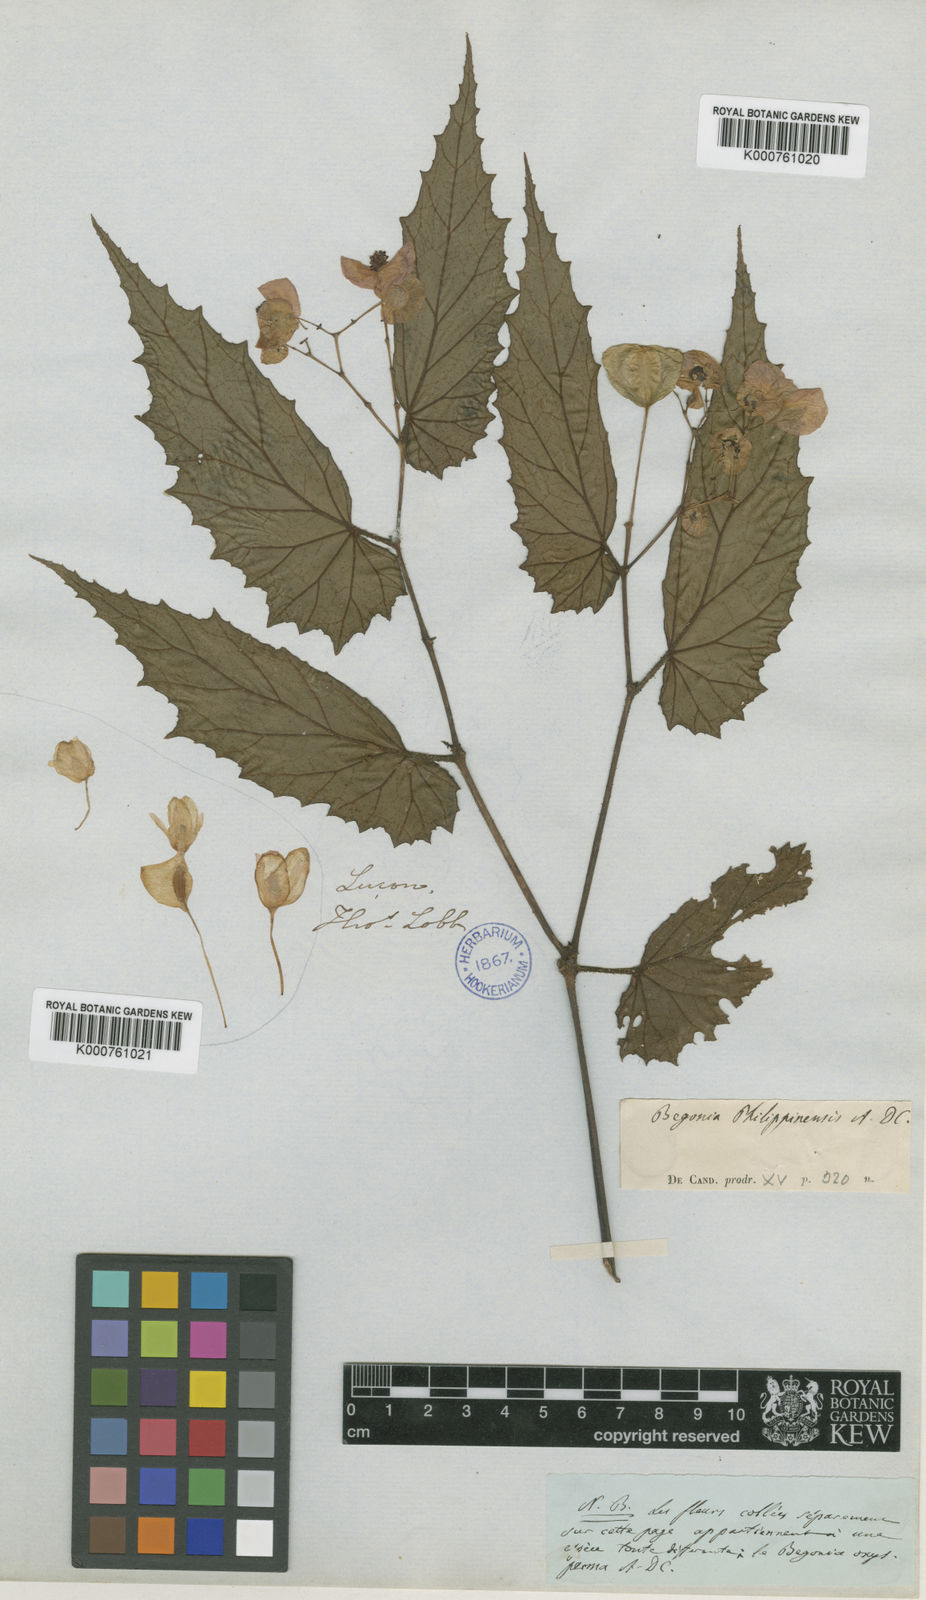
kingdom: Plantae
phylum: Tracheophyta
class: Magnoliopsida
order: Cucurbitales
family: Begoniaceae
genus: Begonia
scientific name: Begonia cumingii
